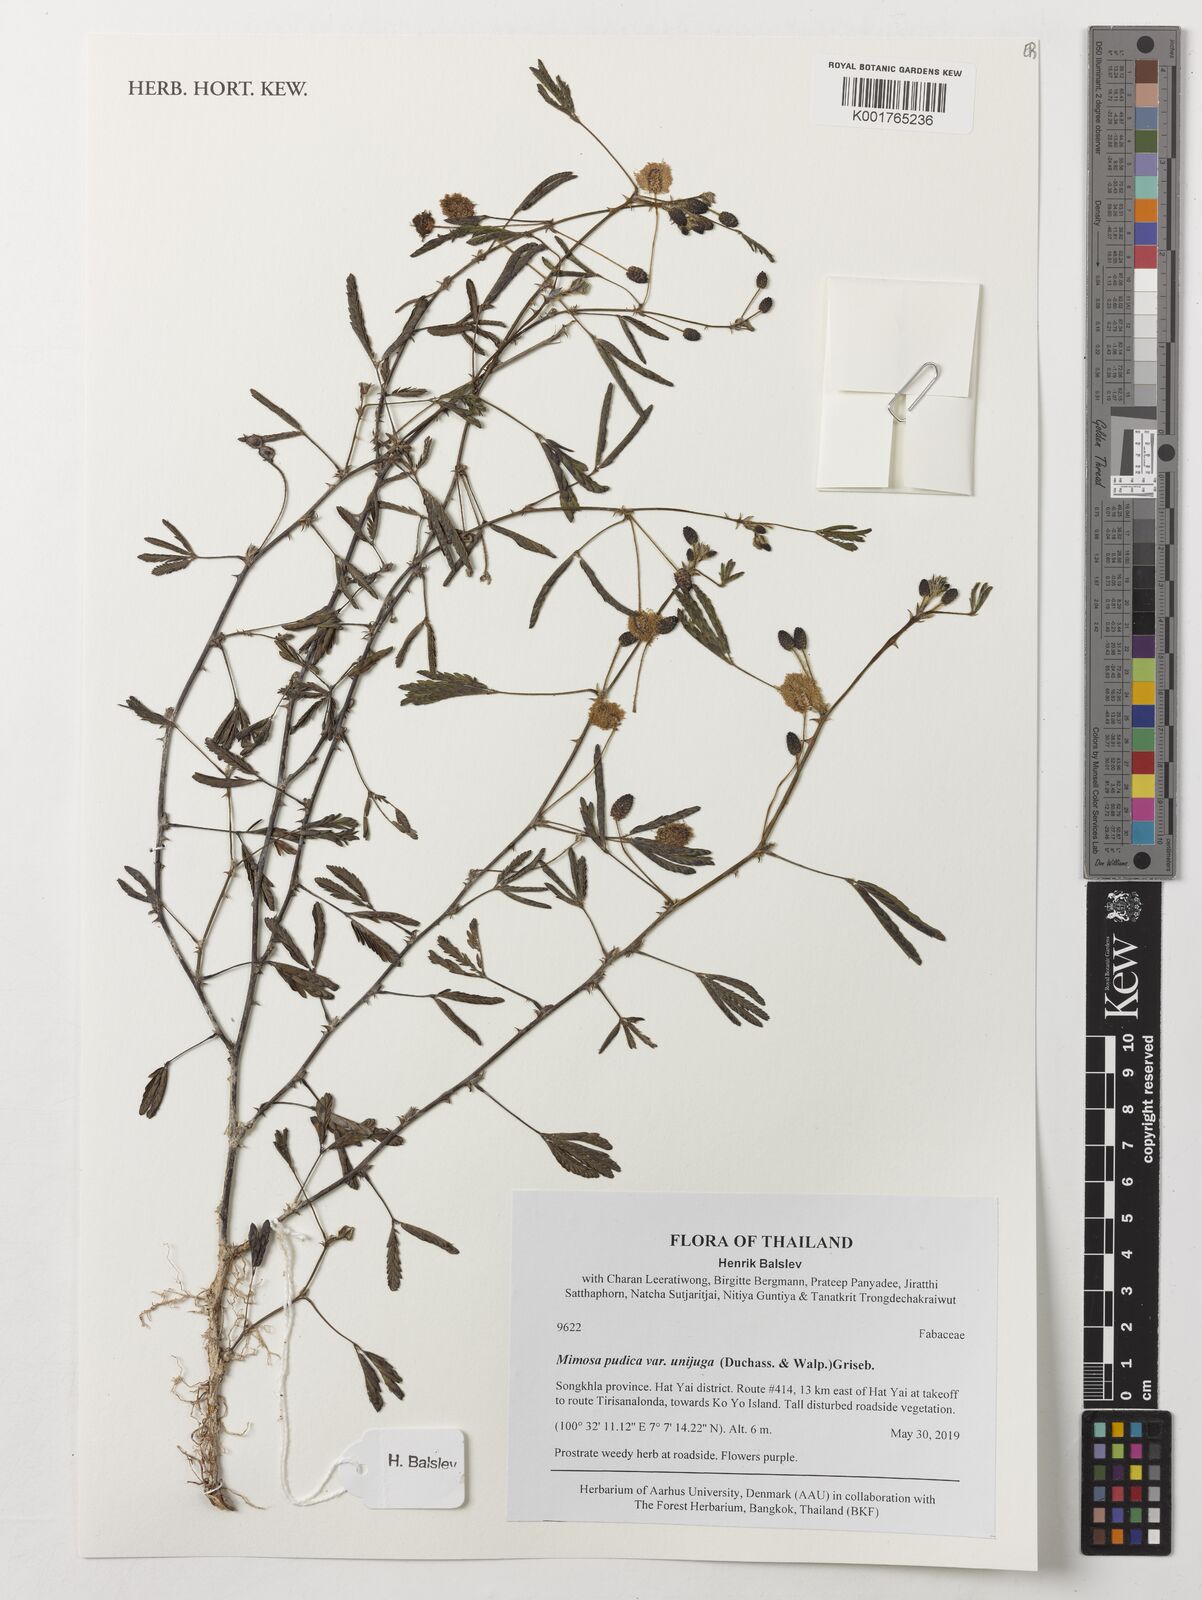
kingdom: Plantae
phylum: Tracheophyta
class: Magnoliopsida
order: Fabales
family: Fabaceae
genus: Mimosa
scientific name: Mimosa pudica
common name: Sensitive plant
